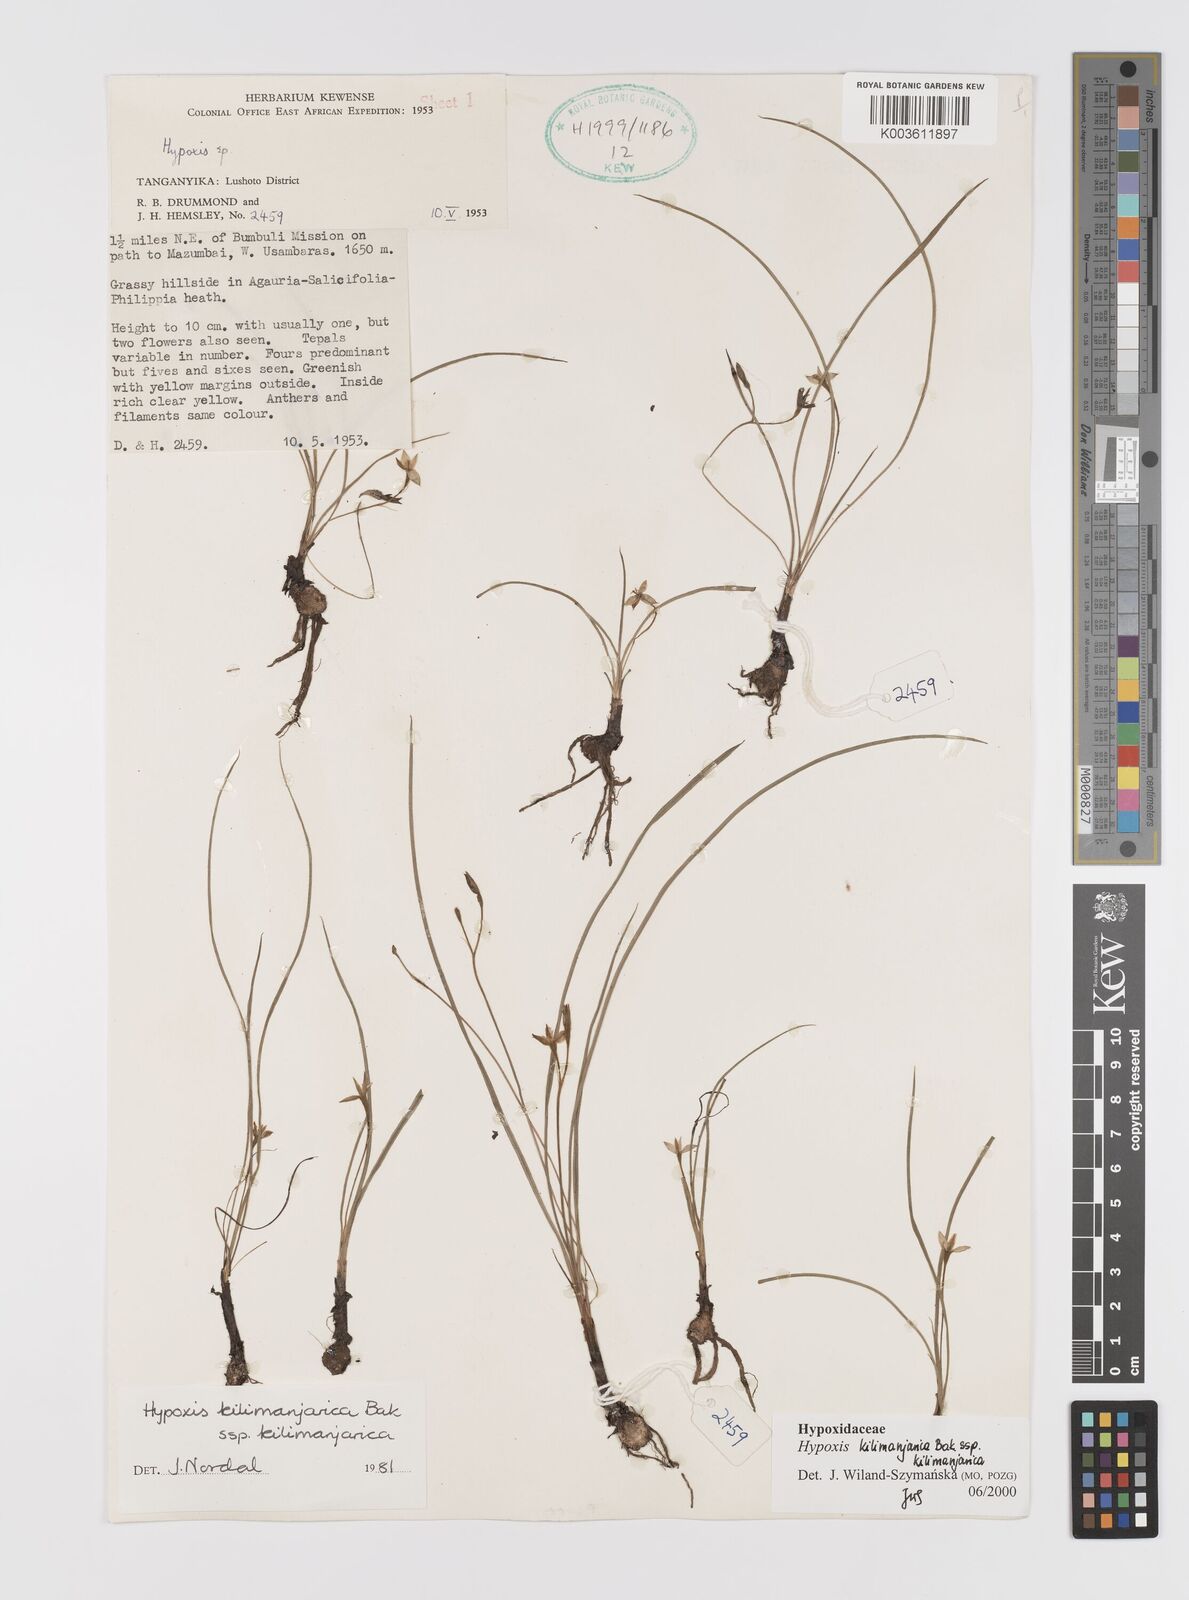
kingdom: Plantae
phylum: Tracheophyta
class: Liliopsida
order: Asparagales
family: Hypoxidaceae
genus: Hypoxis
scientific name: Hypoxis kilimanjarica
